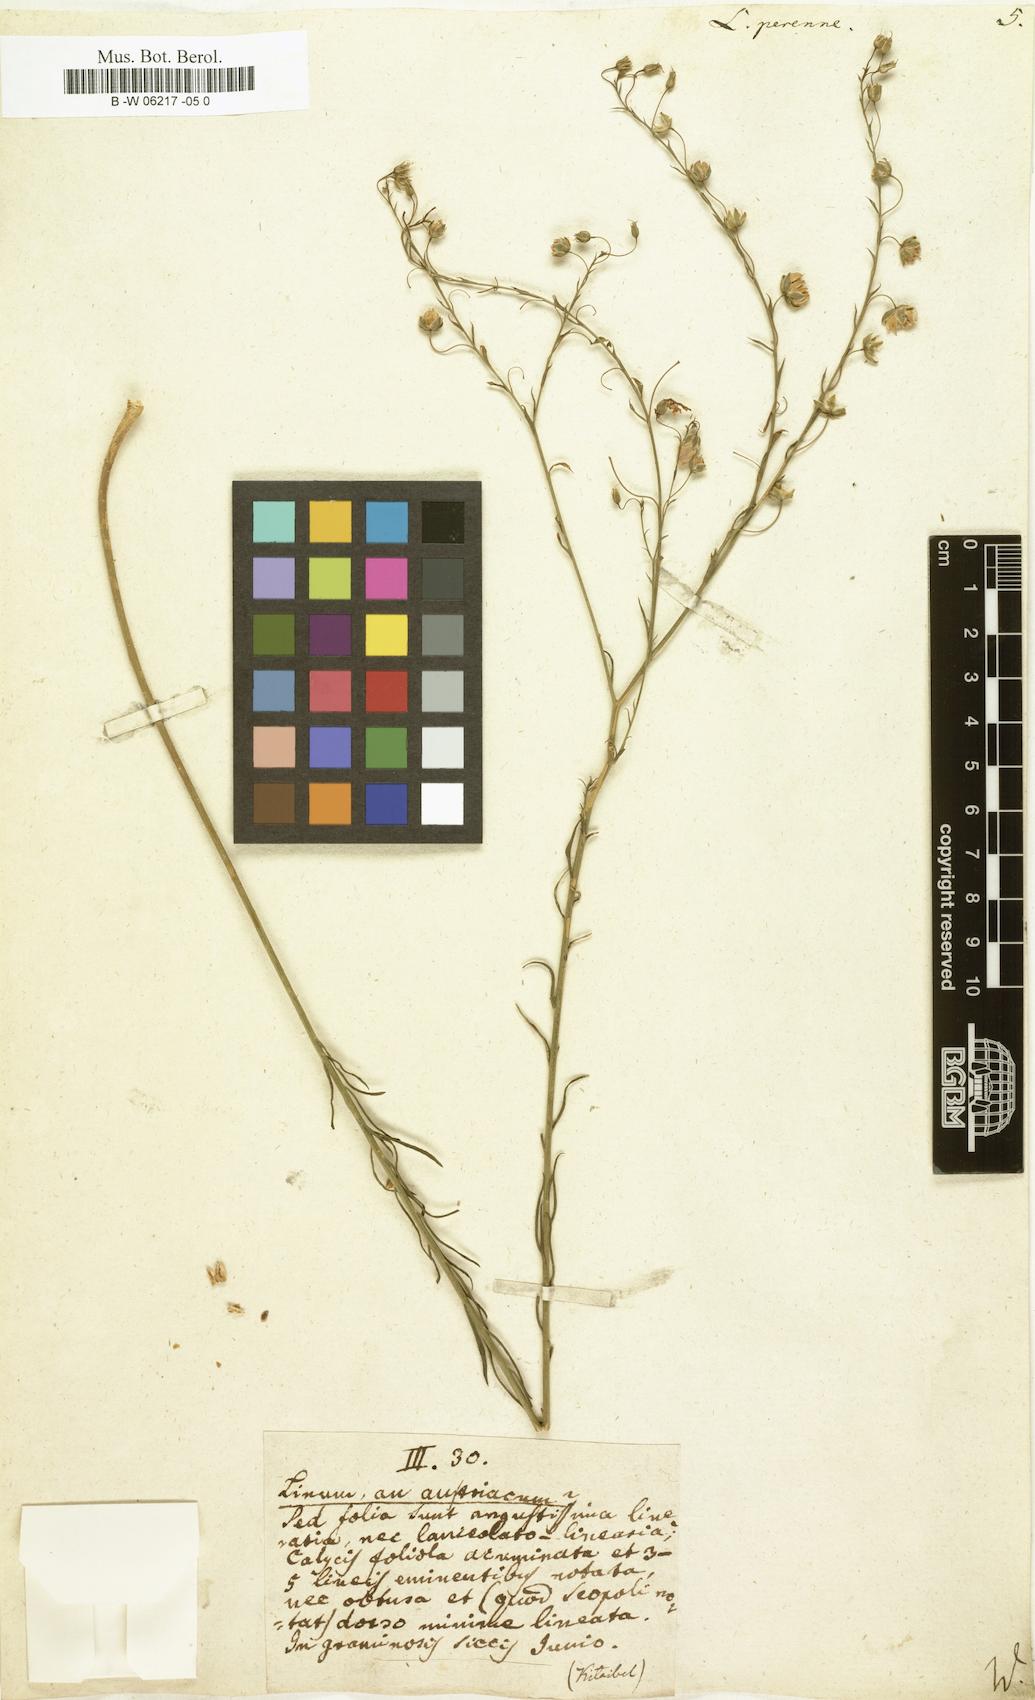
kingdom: Plantae
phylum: Tracheophyta
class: Magnoliopsida
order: Malpighiales
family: Linaceae
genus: Linum
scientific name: Linum perenne
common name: Blue flax
